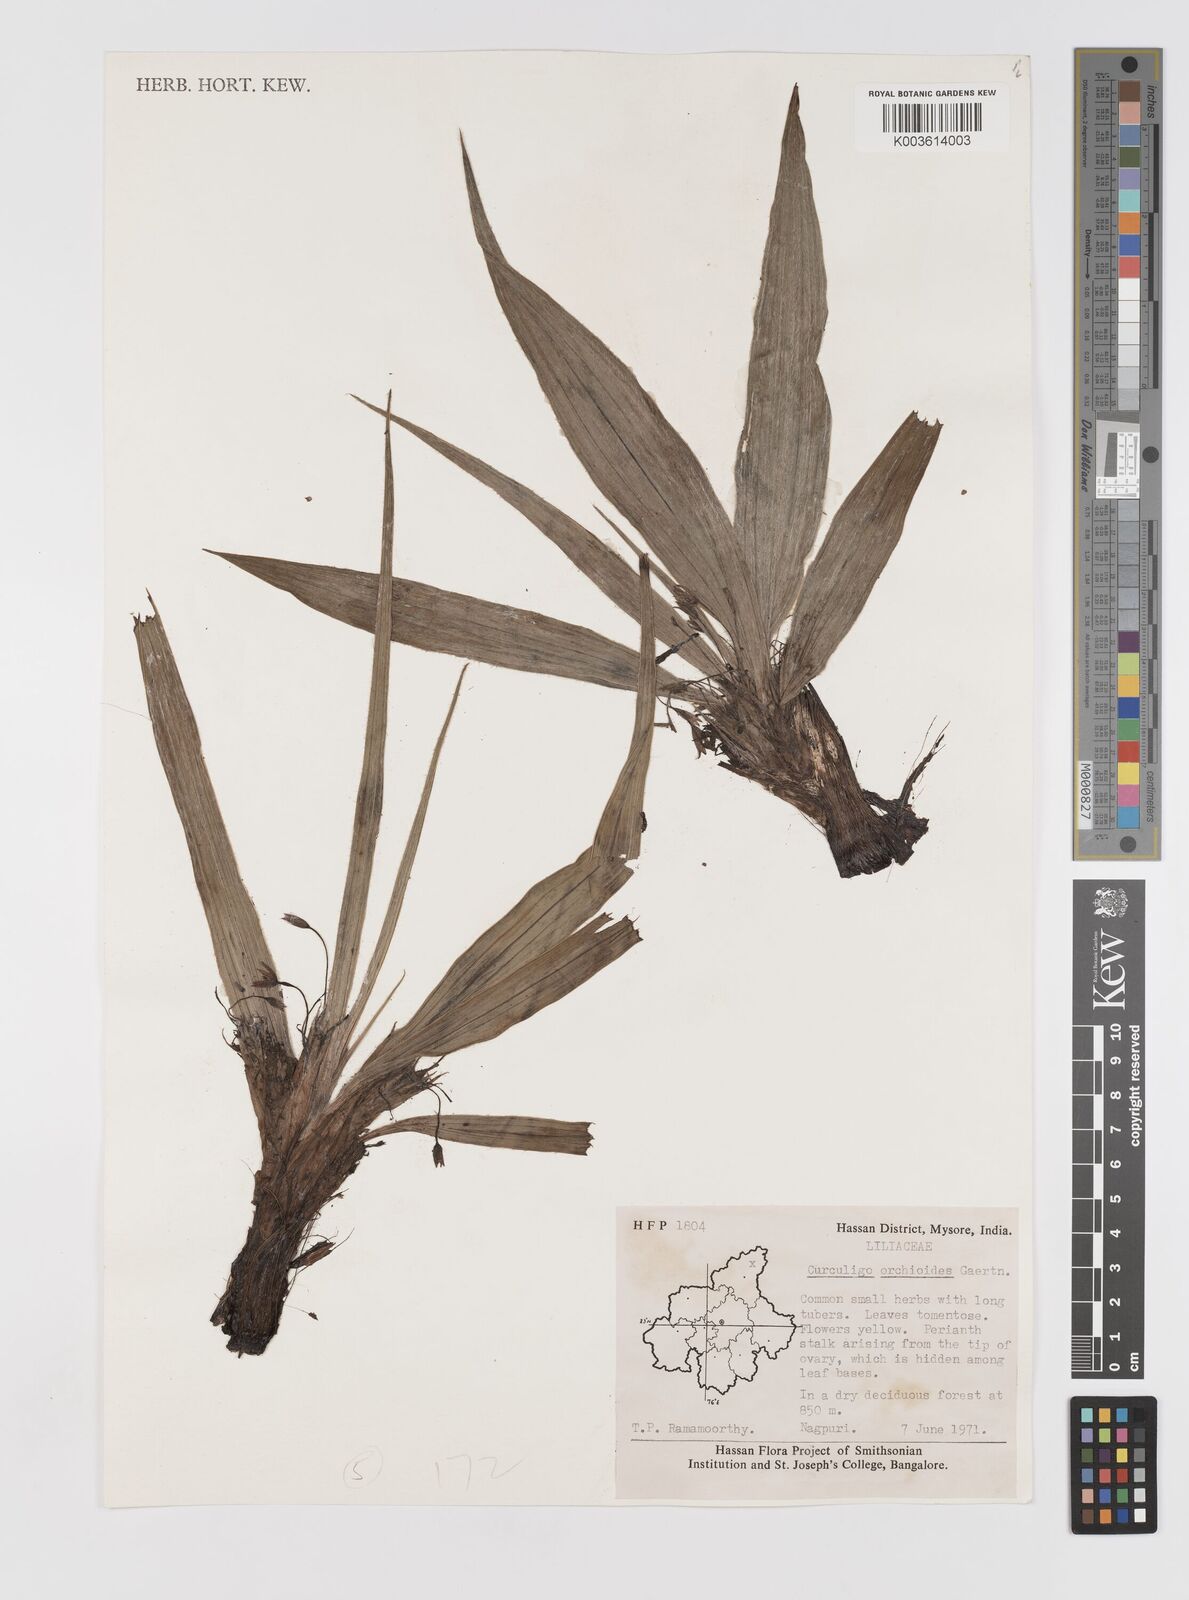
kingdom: Plantae
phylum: Tracheophyta
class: Liliopsida
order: Asparagales
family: Hypoxidaceae
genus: Curculigo
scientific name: Curculigo orchioides
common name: Golden eye-grass
